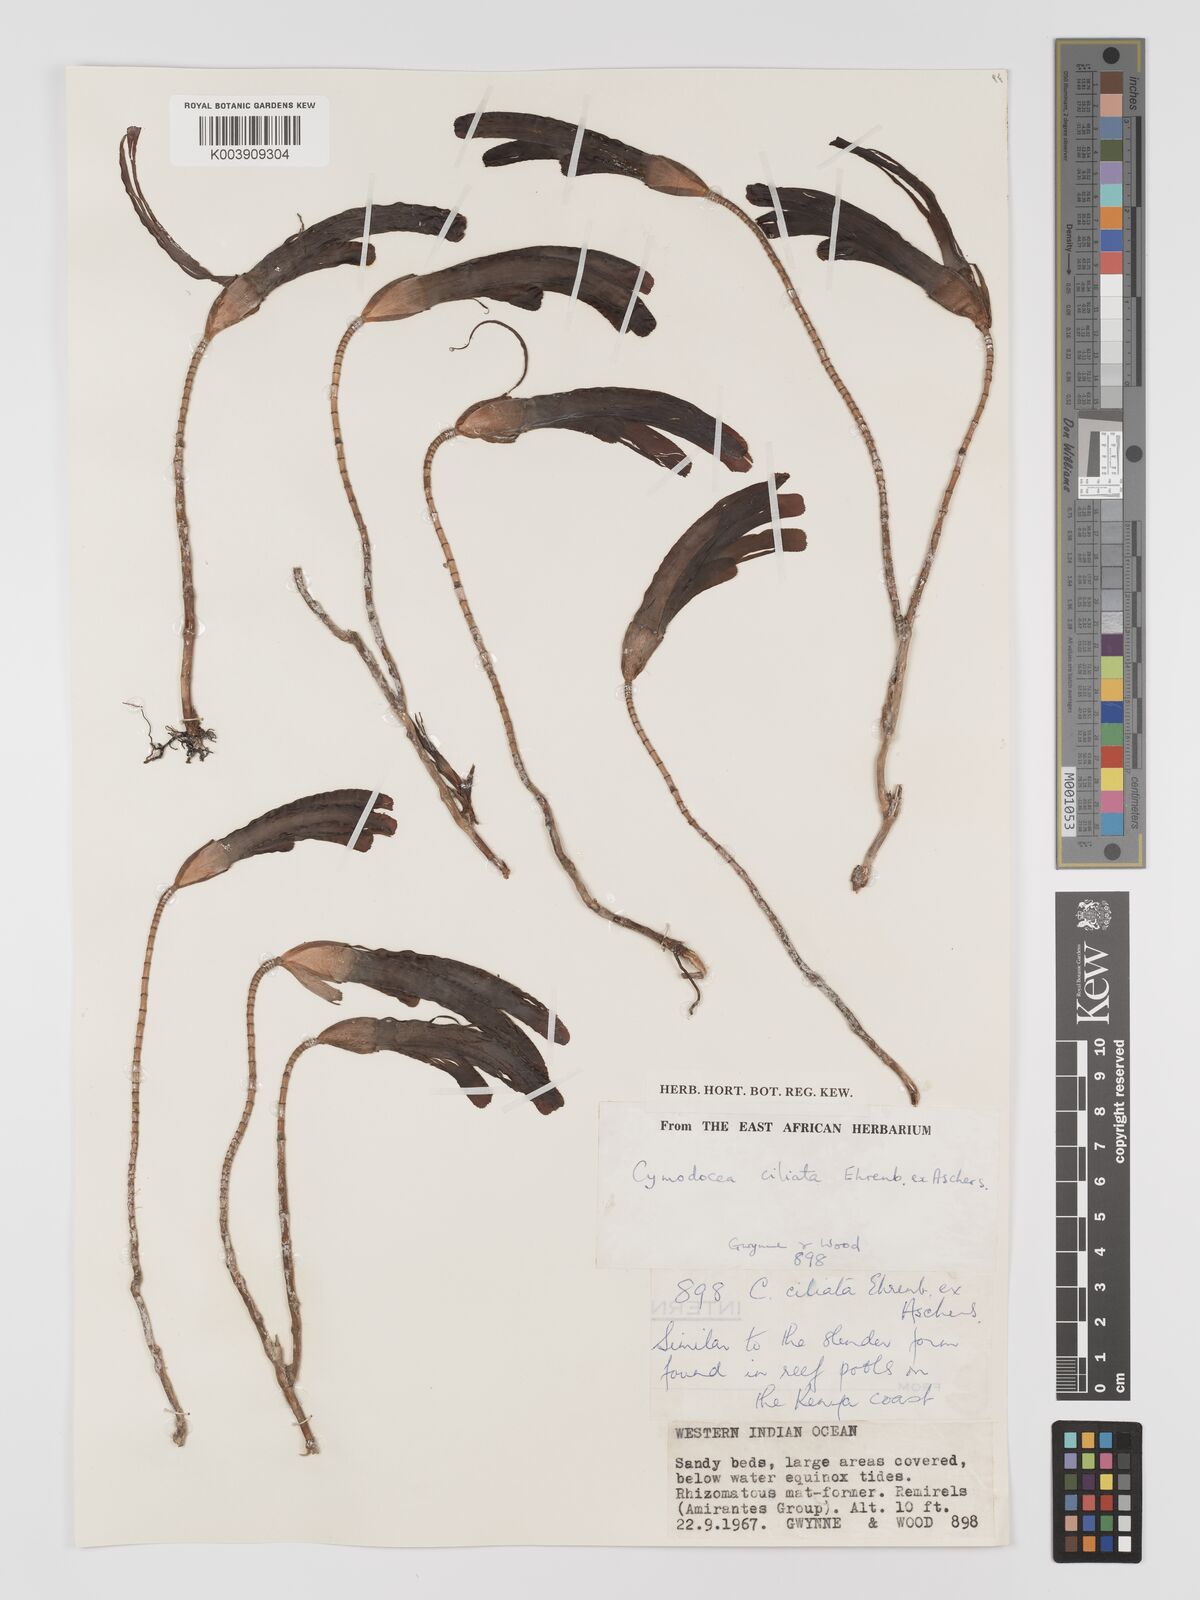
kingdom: Plantae
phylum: Tracheophyta
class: Liliopsida
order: Alismatales
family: Cymodoceaceae
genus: Thalassodendron
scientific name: Thalassodendron ciliatum
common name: Species code: tc
